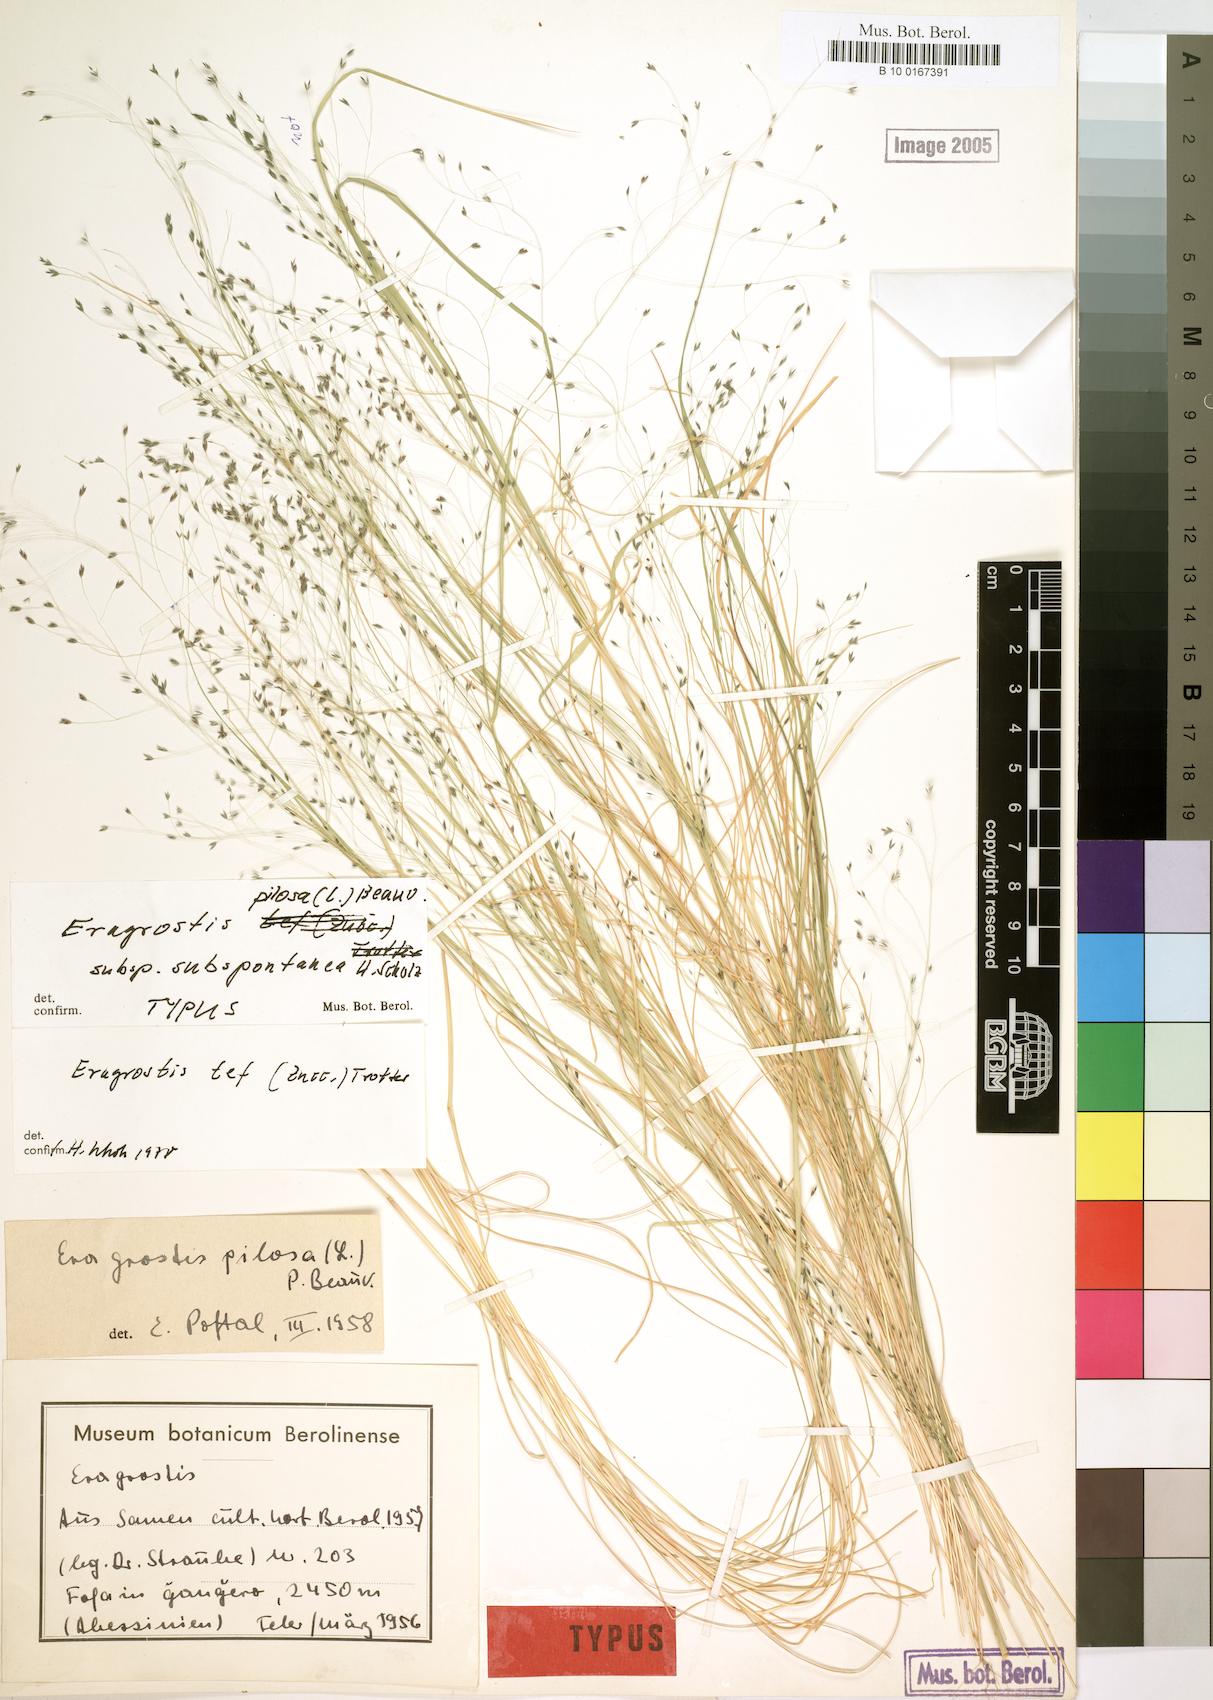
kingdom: Plantae
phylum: Tracheophyta
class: Liliopsida
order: Poales
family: Poaceae
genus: Eragrostis
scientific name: Eragrostis pilosa
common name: Indian lovegrass
